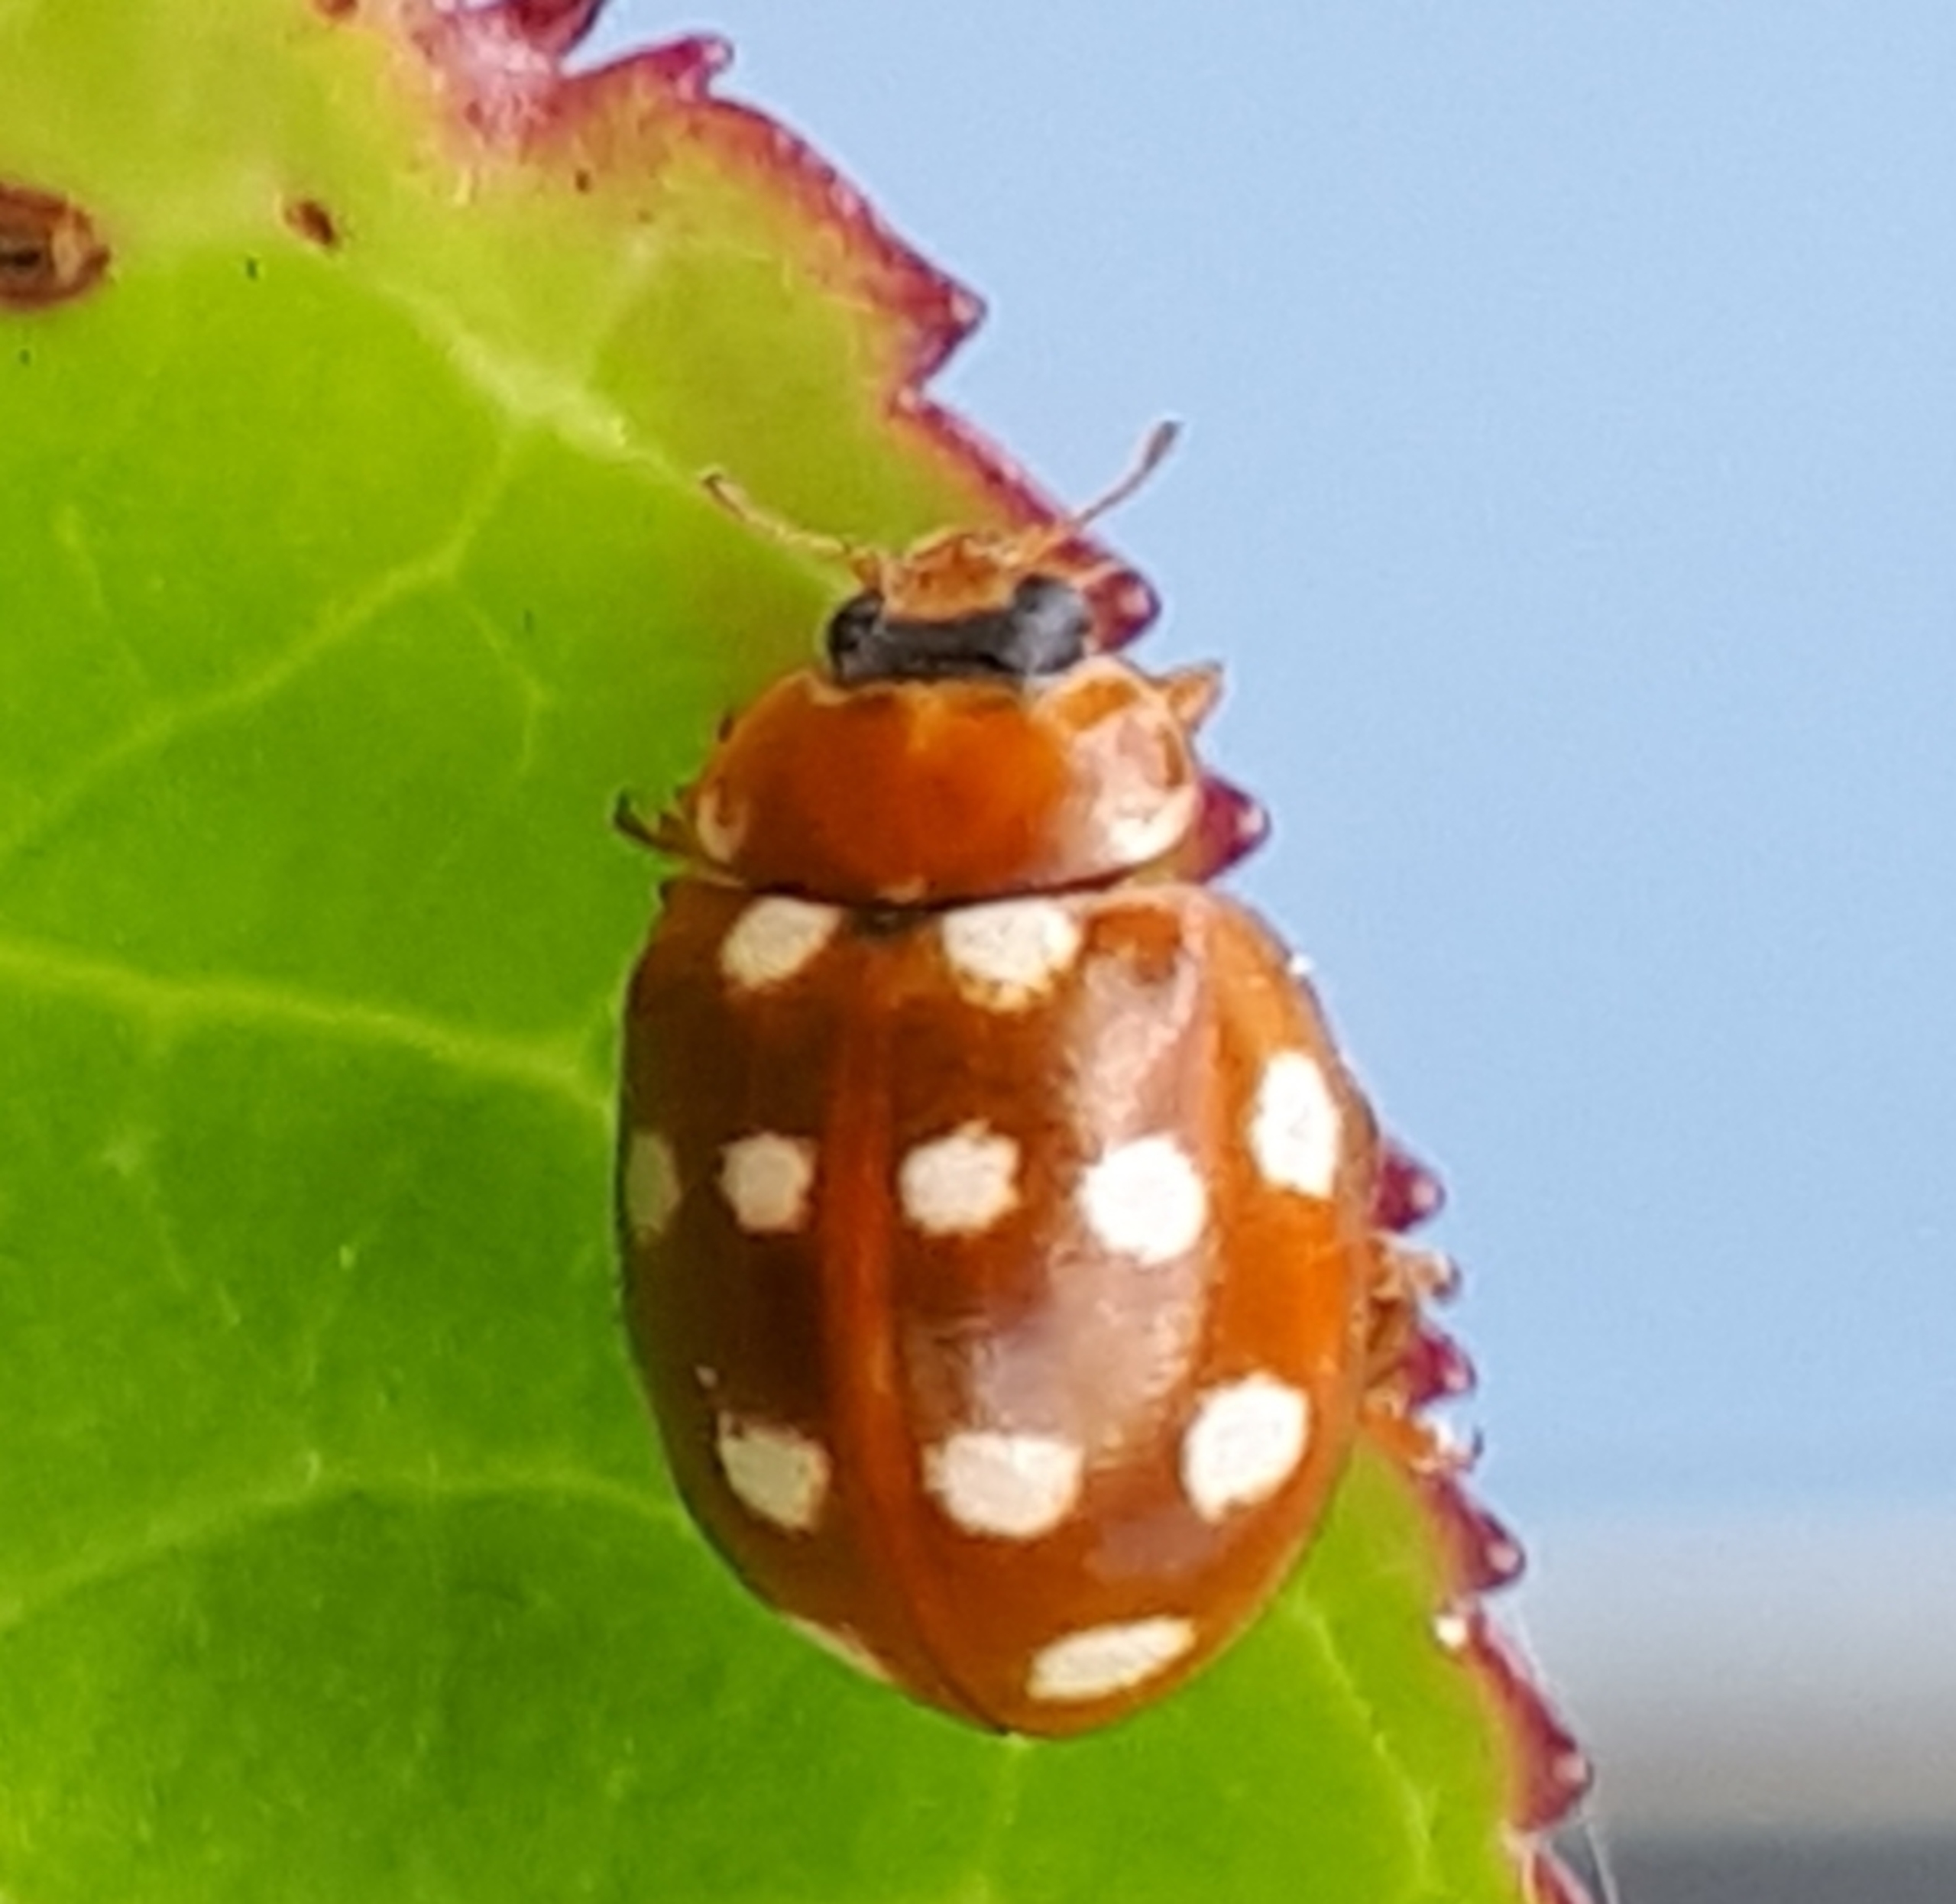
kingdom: Animalia
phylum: Arthropoda
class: Insecta
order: Coleoptera
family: Coccinellidae
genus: Calvia
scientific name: Calvia quatuordecimguttata
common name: Fjortenplettet mariehøne
